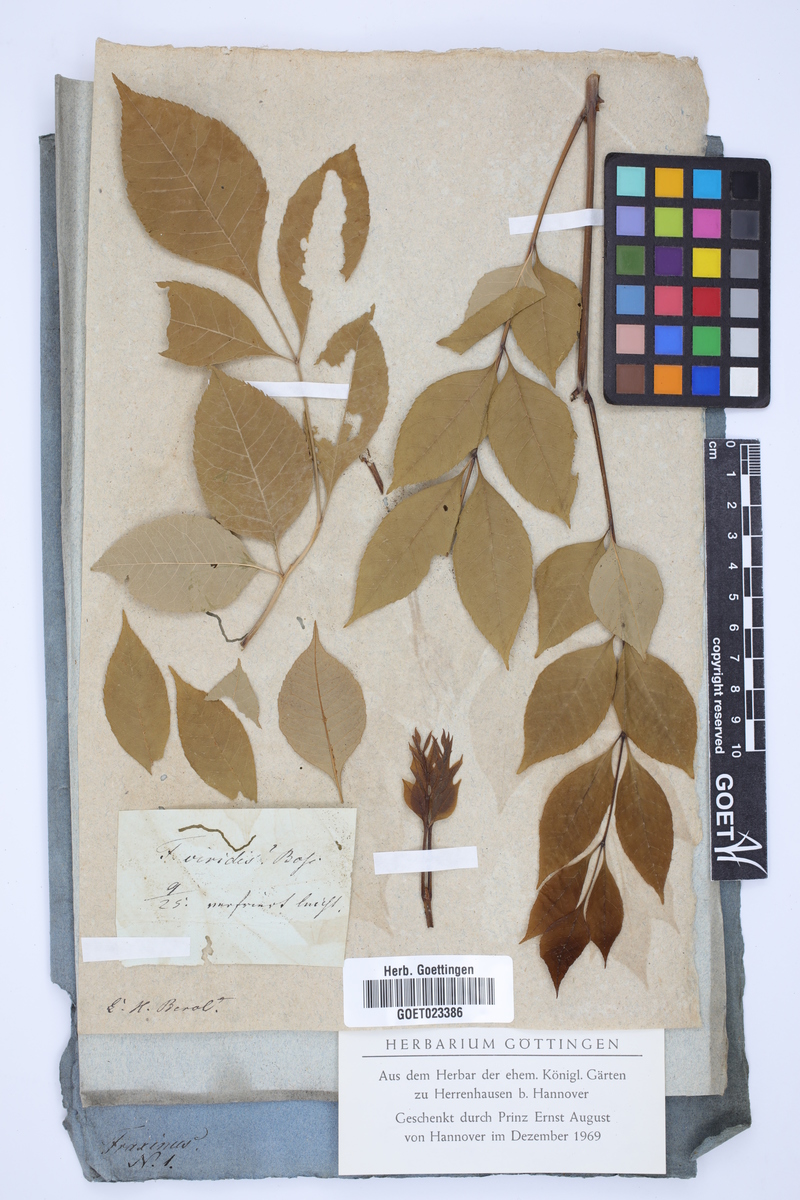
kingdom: Plantae
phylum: Tracheophyta
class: Magnoliopsida
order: Lamiales
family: Oleaceae
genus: Fraxinus
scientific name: Fraxinus americana
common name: White ash
